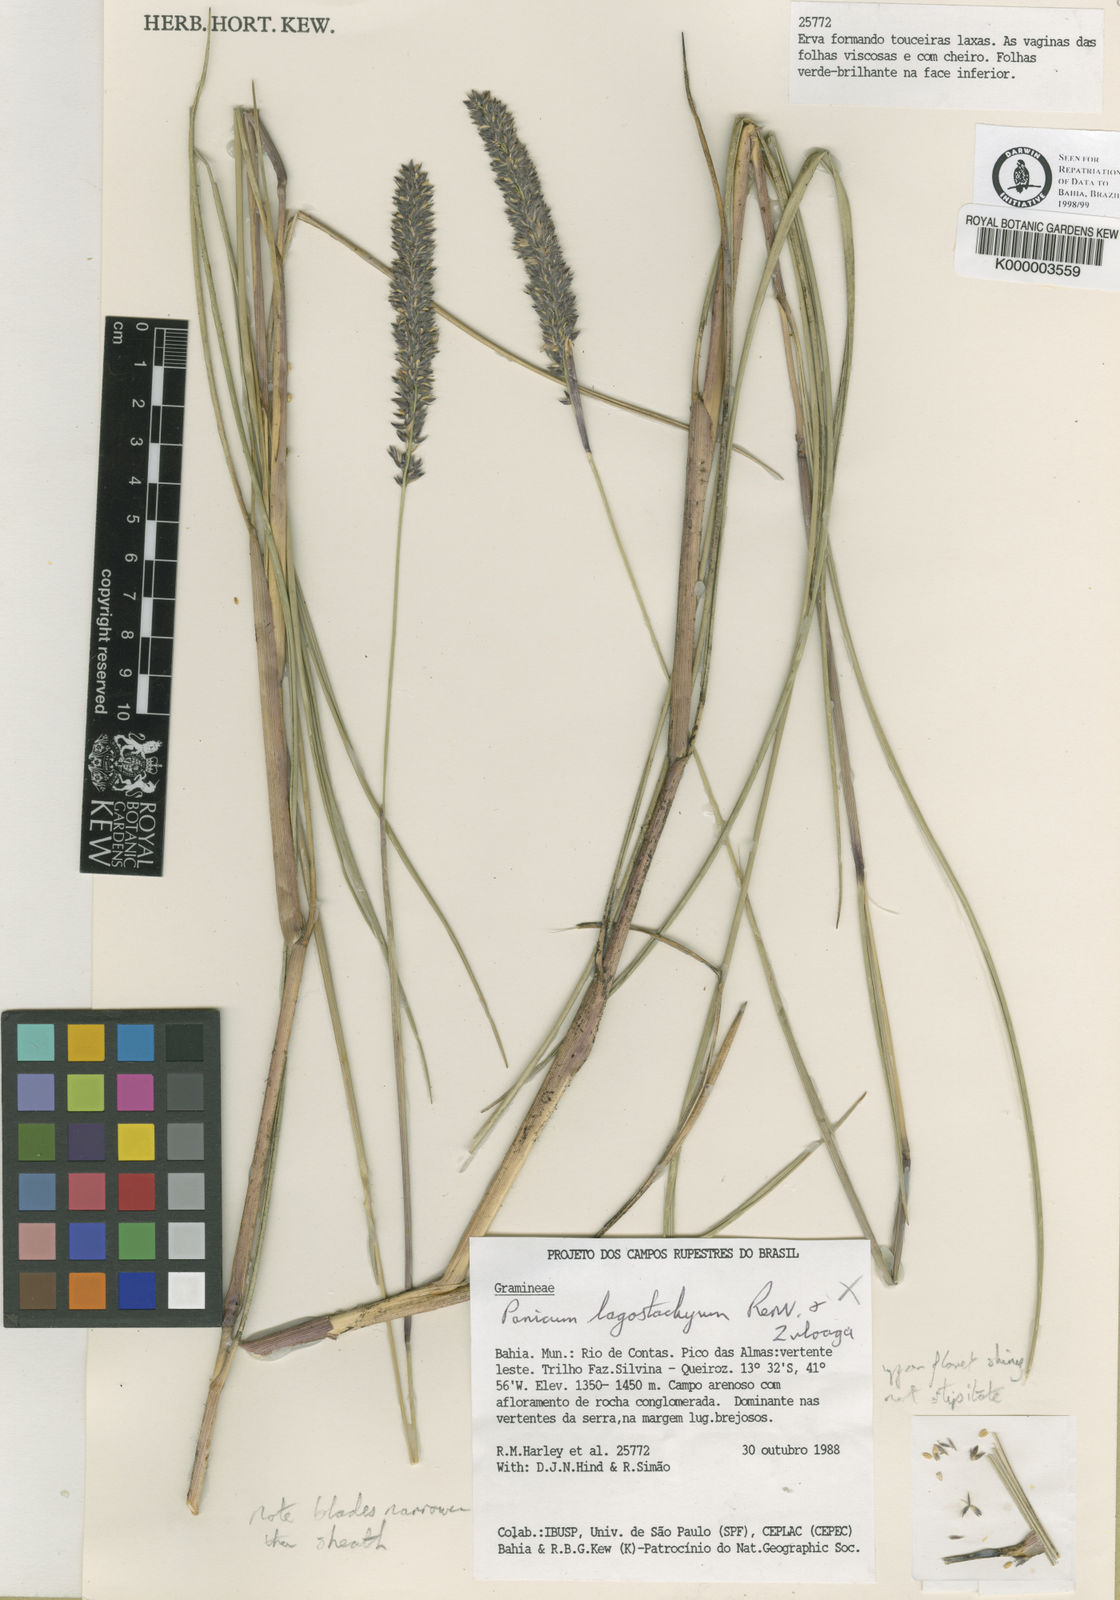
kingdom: Plantae
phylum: Tracheophyta
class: Liliopsida
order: Poales
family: Poaceae
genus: Renvoizea
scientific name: Renvoizea vaginiviscosa
